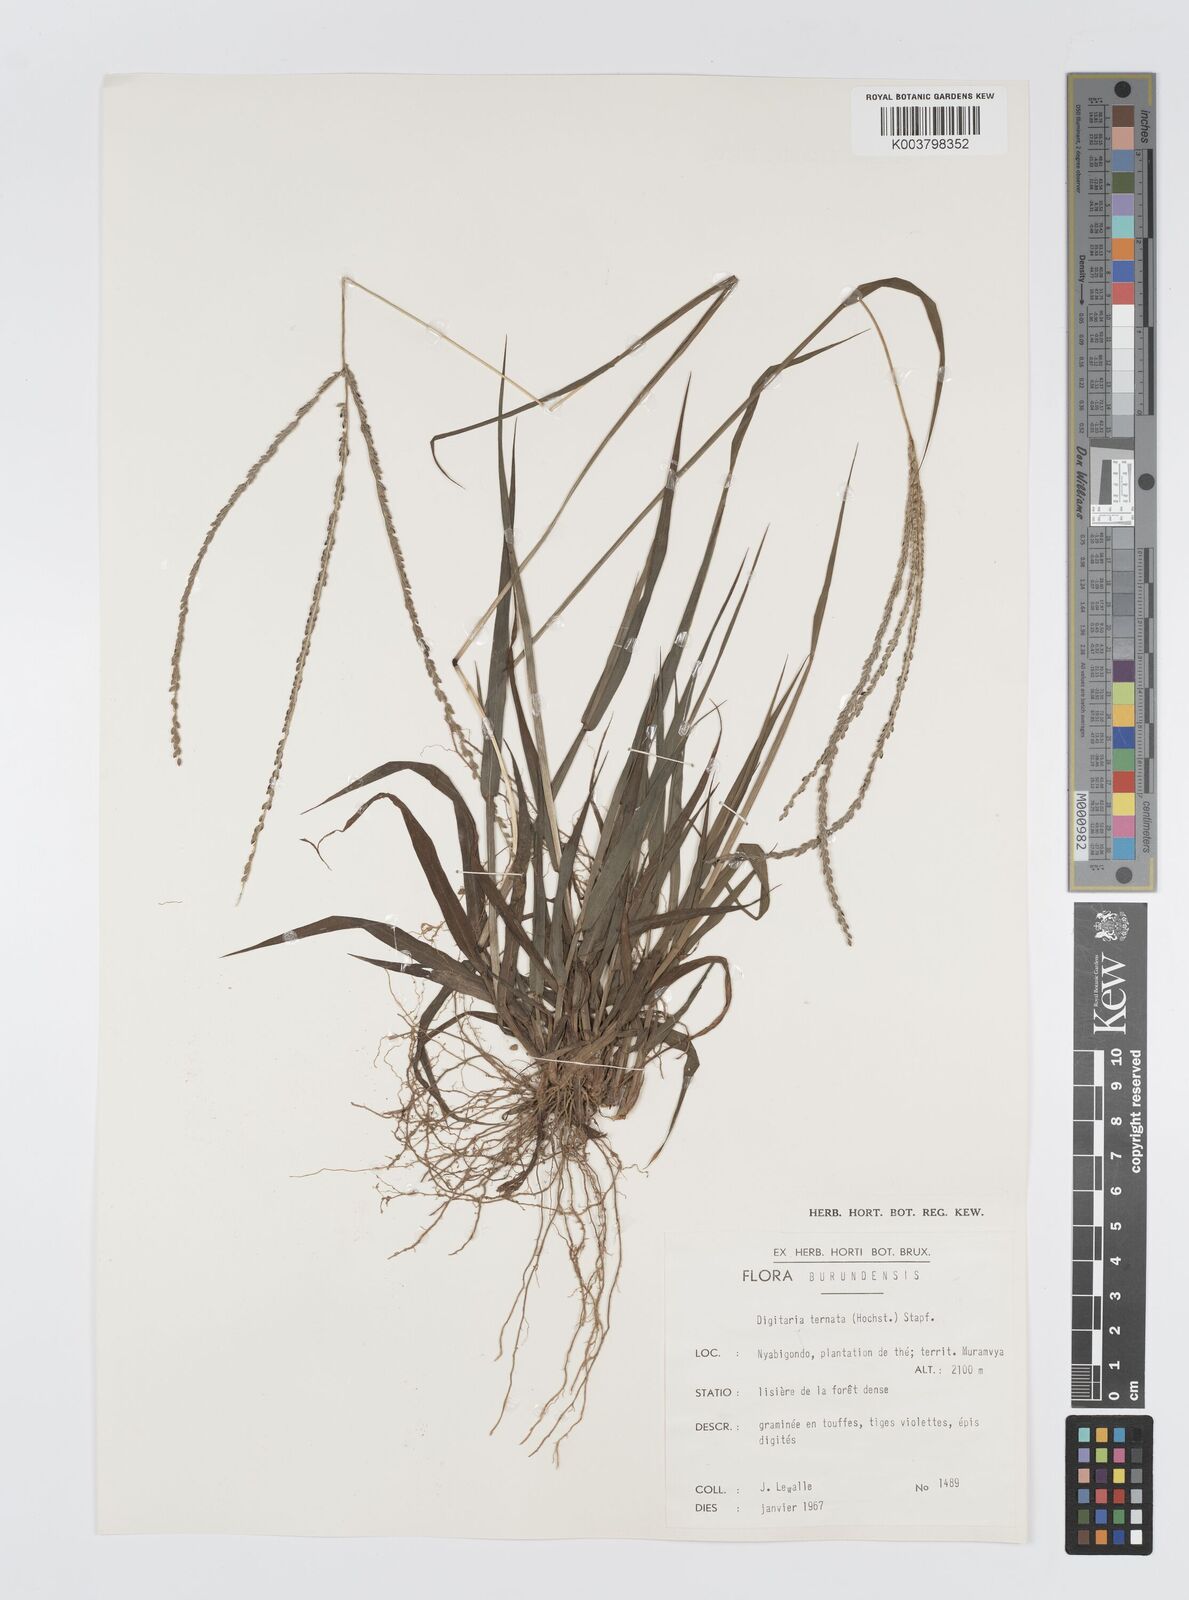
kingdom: Plantae
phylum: Tracheophyta
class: Liliopsida
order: Poales
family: Poaceae
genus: Digitaria
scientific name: Digitaria ternata
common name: Blackseed crabgrass
